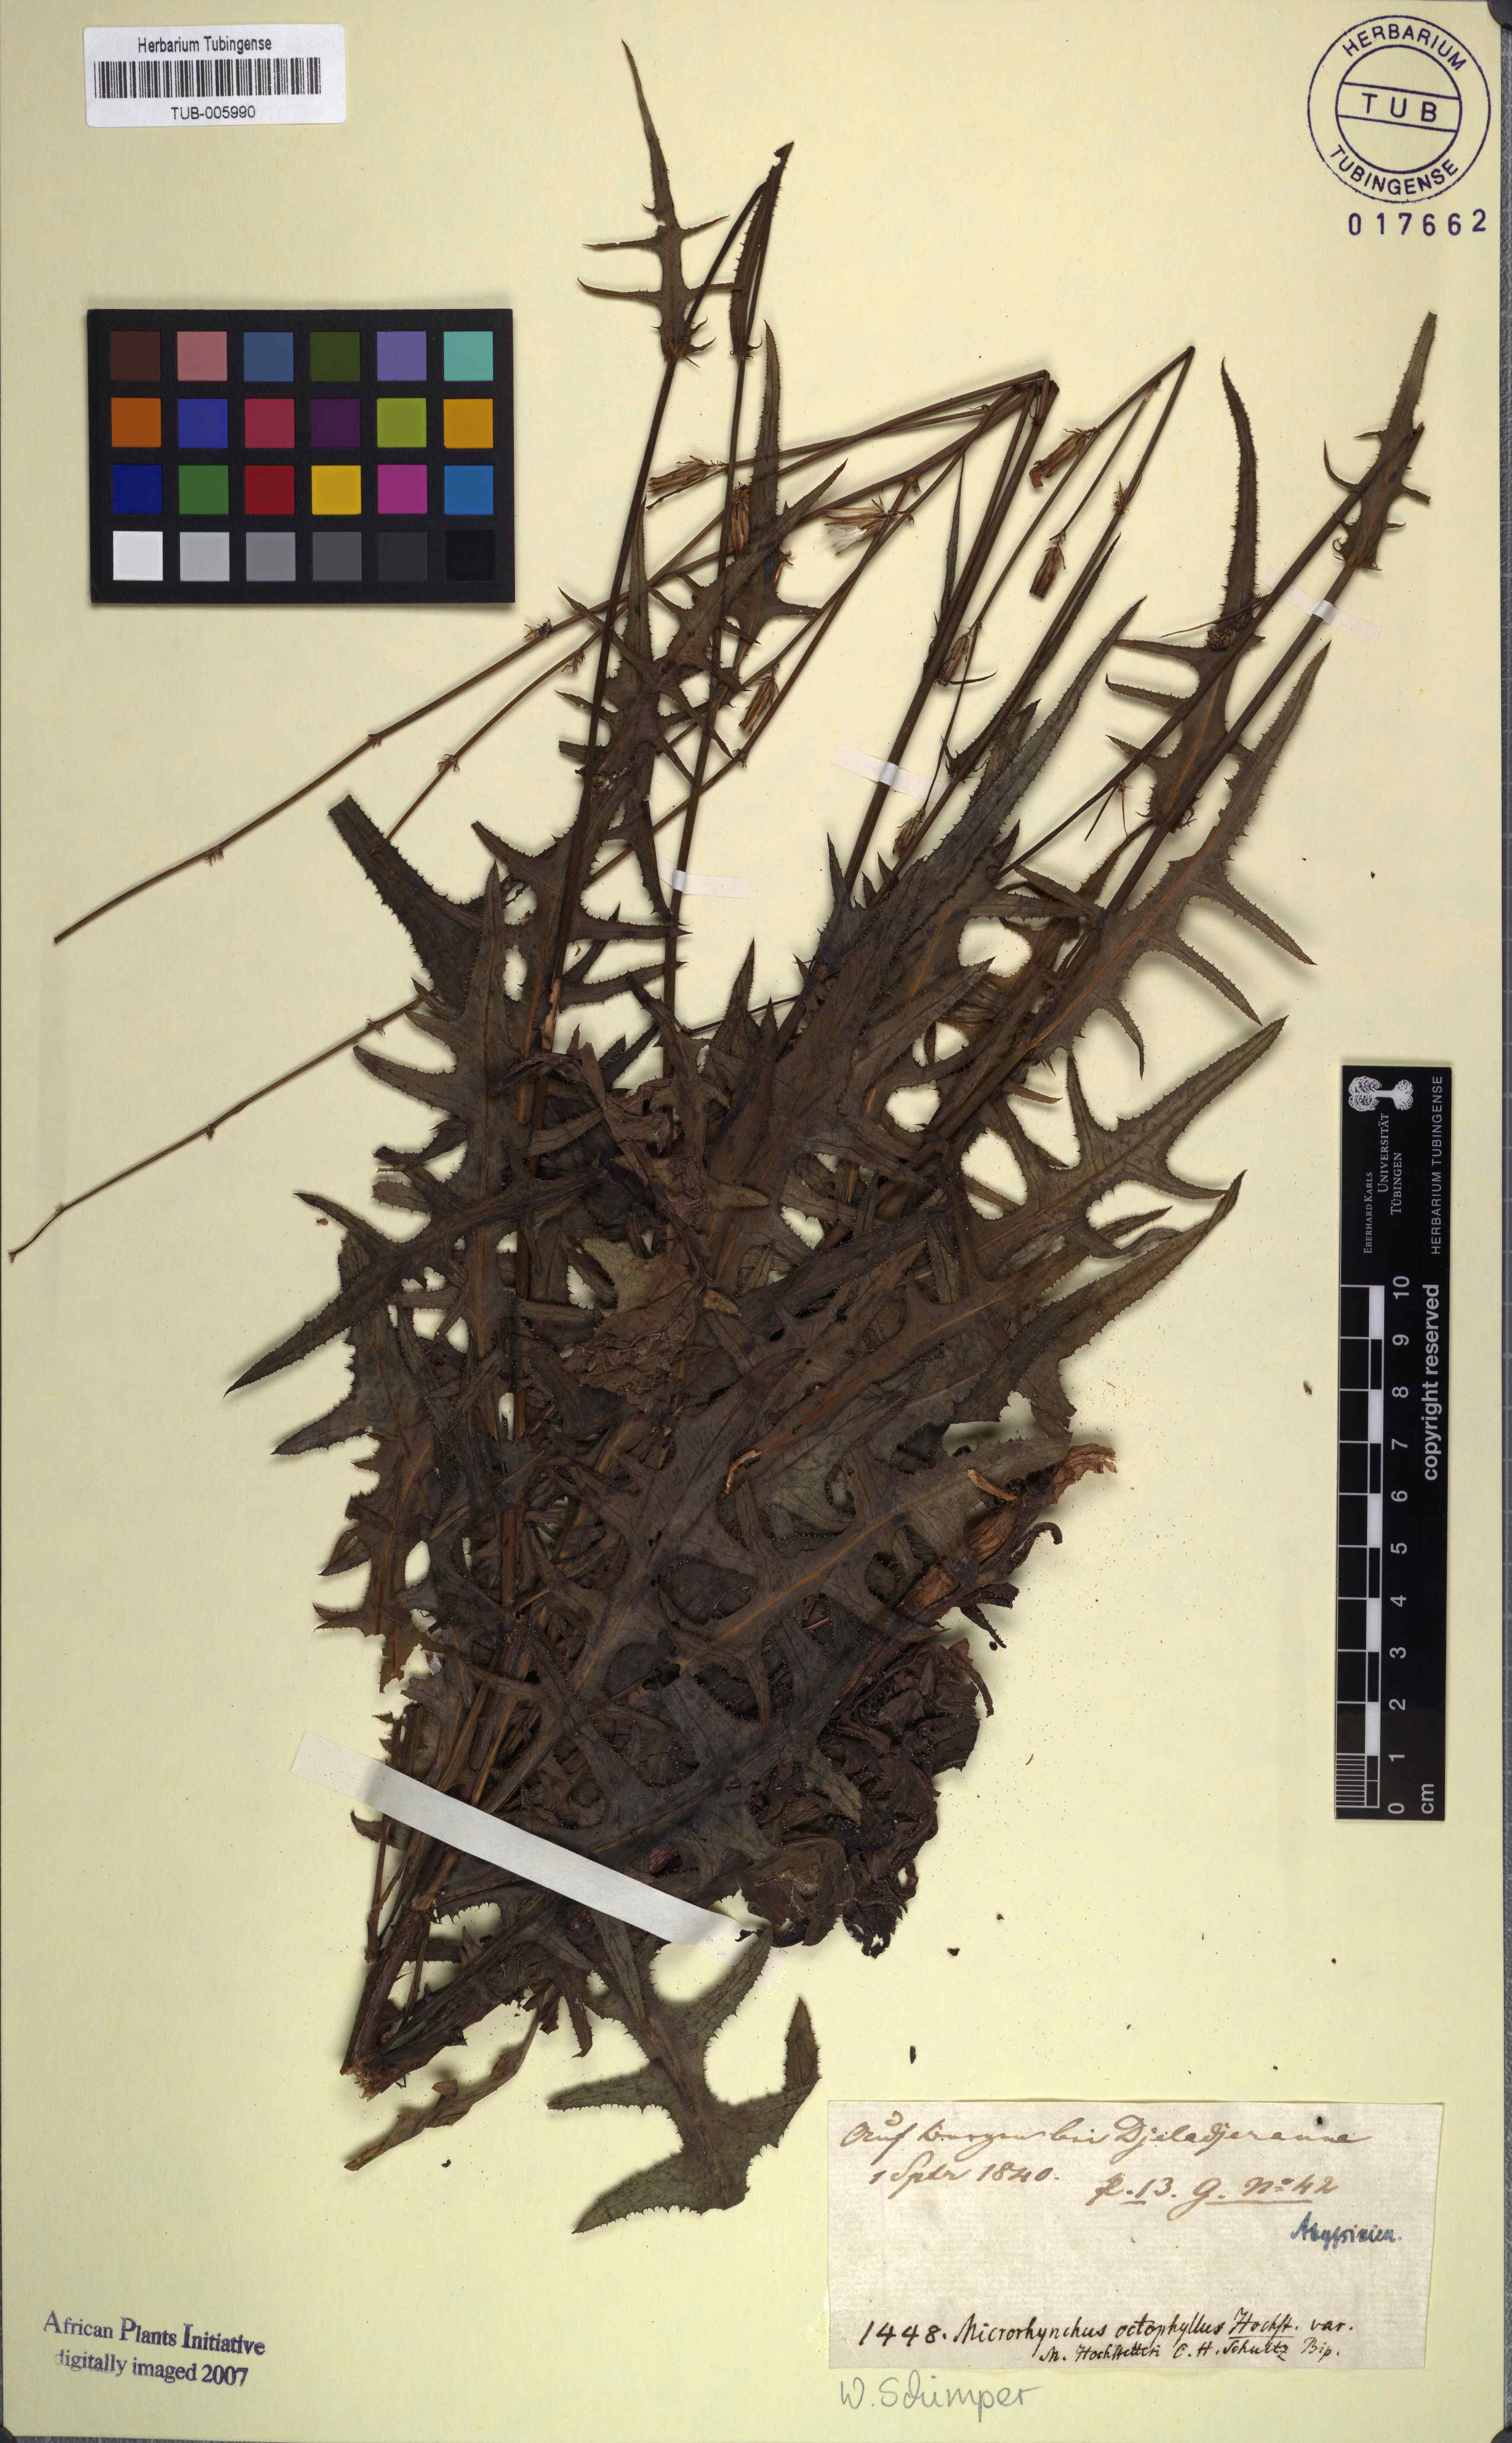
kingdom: Plantae
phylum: Tracheophyta
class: Magnoliopsida
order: Asterales
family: Asteraceae
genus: Launaea
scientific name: Launaea intybacea
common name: Achicoria azul
